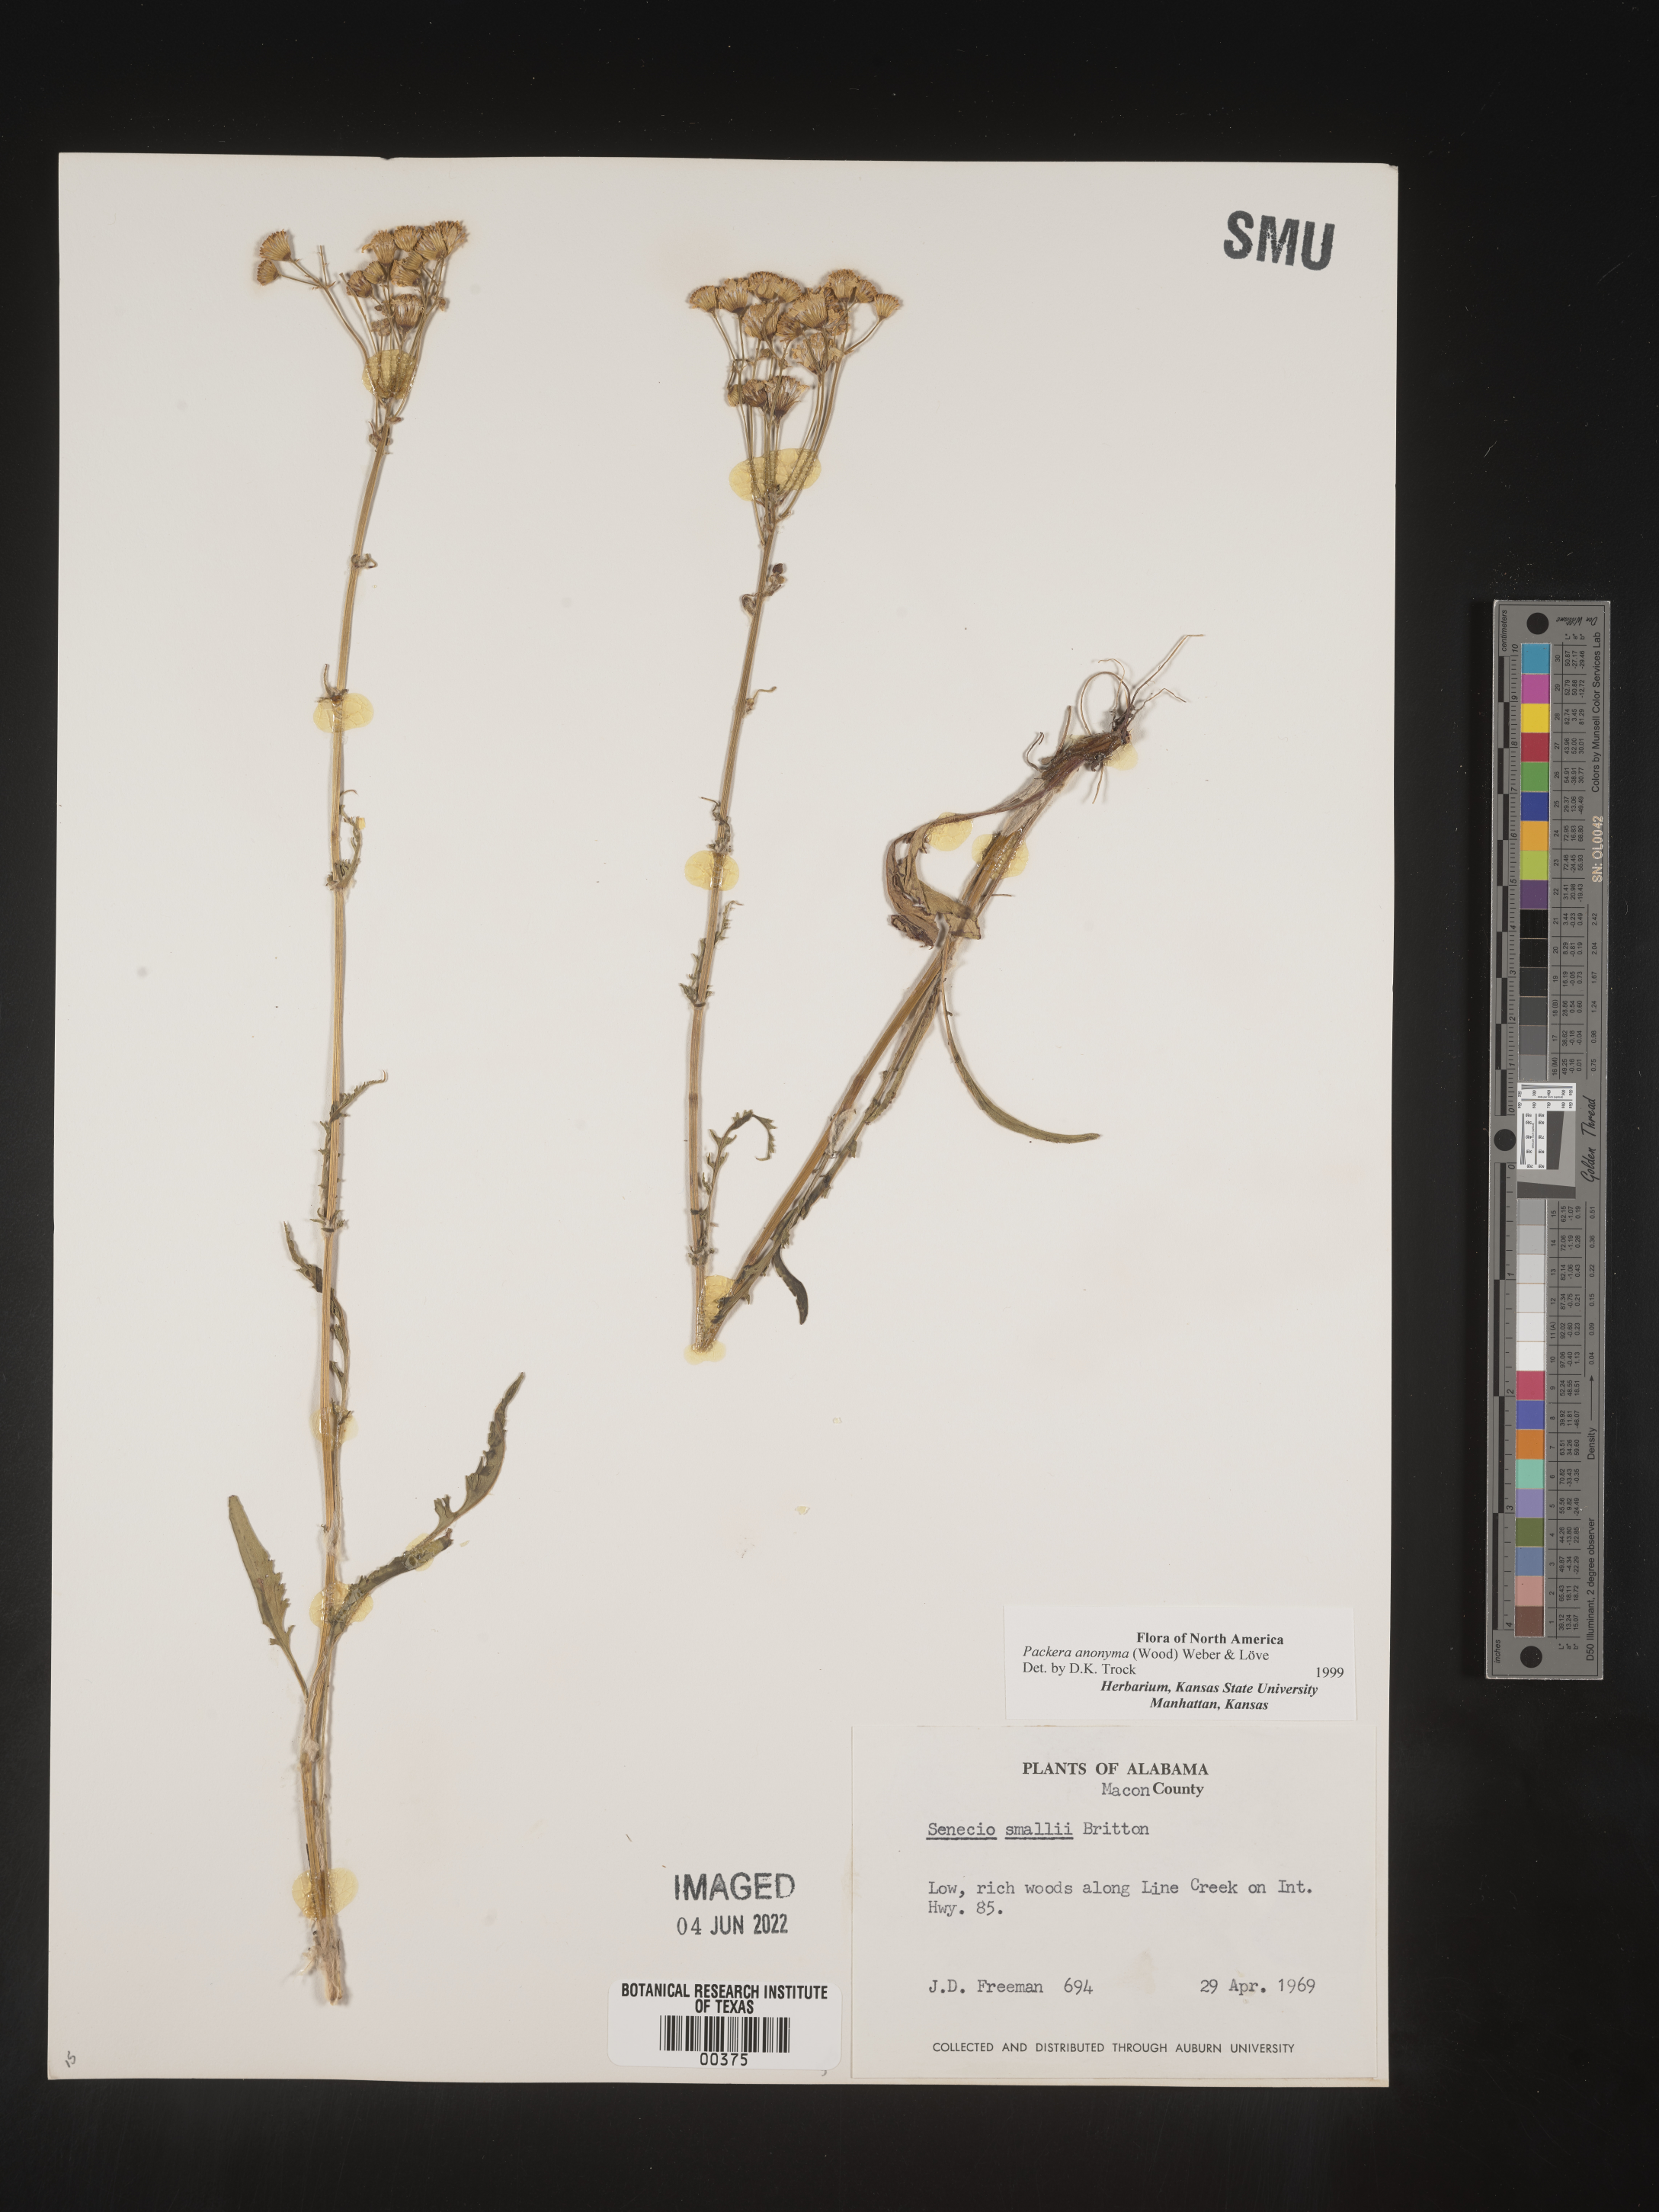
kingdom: Plantae
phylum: Tracheophyta
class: Magnoliopsida
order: Asterales
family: Asteraceae
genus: Packera
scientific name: Packera anonyma
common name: Small ragwort
